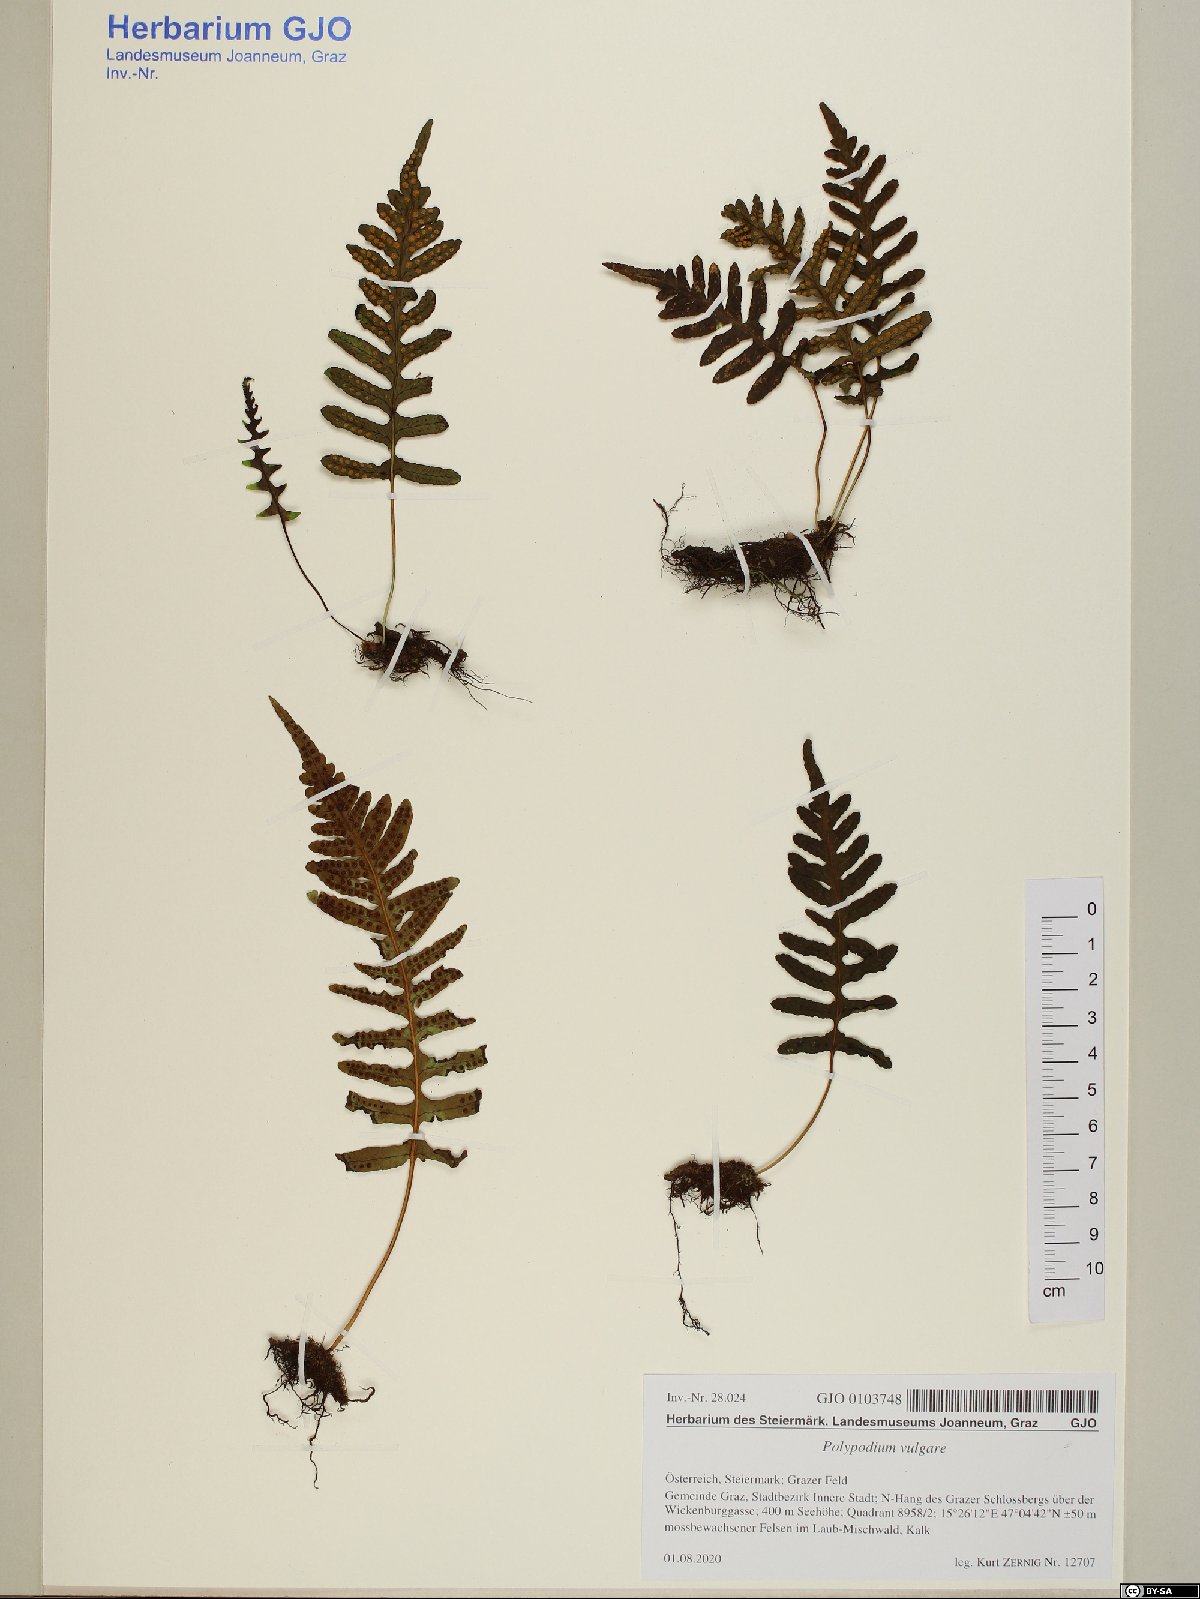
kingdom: Plantae
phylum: Tracheophyta
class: Polypodiopsida
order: Polypodiales
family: Polypodiaceae
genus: Polypodium
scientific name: Polypodium vulgare
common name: Common polypody
